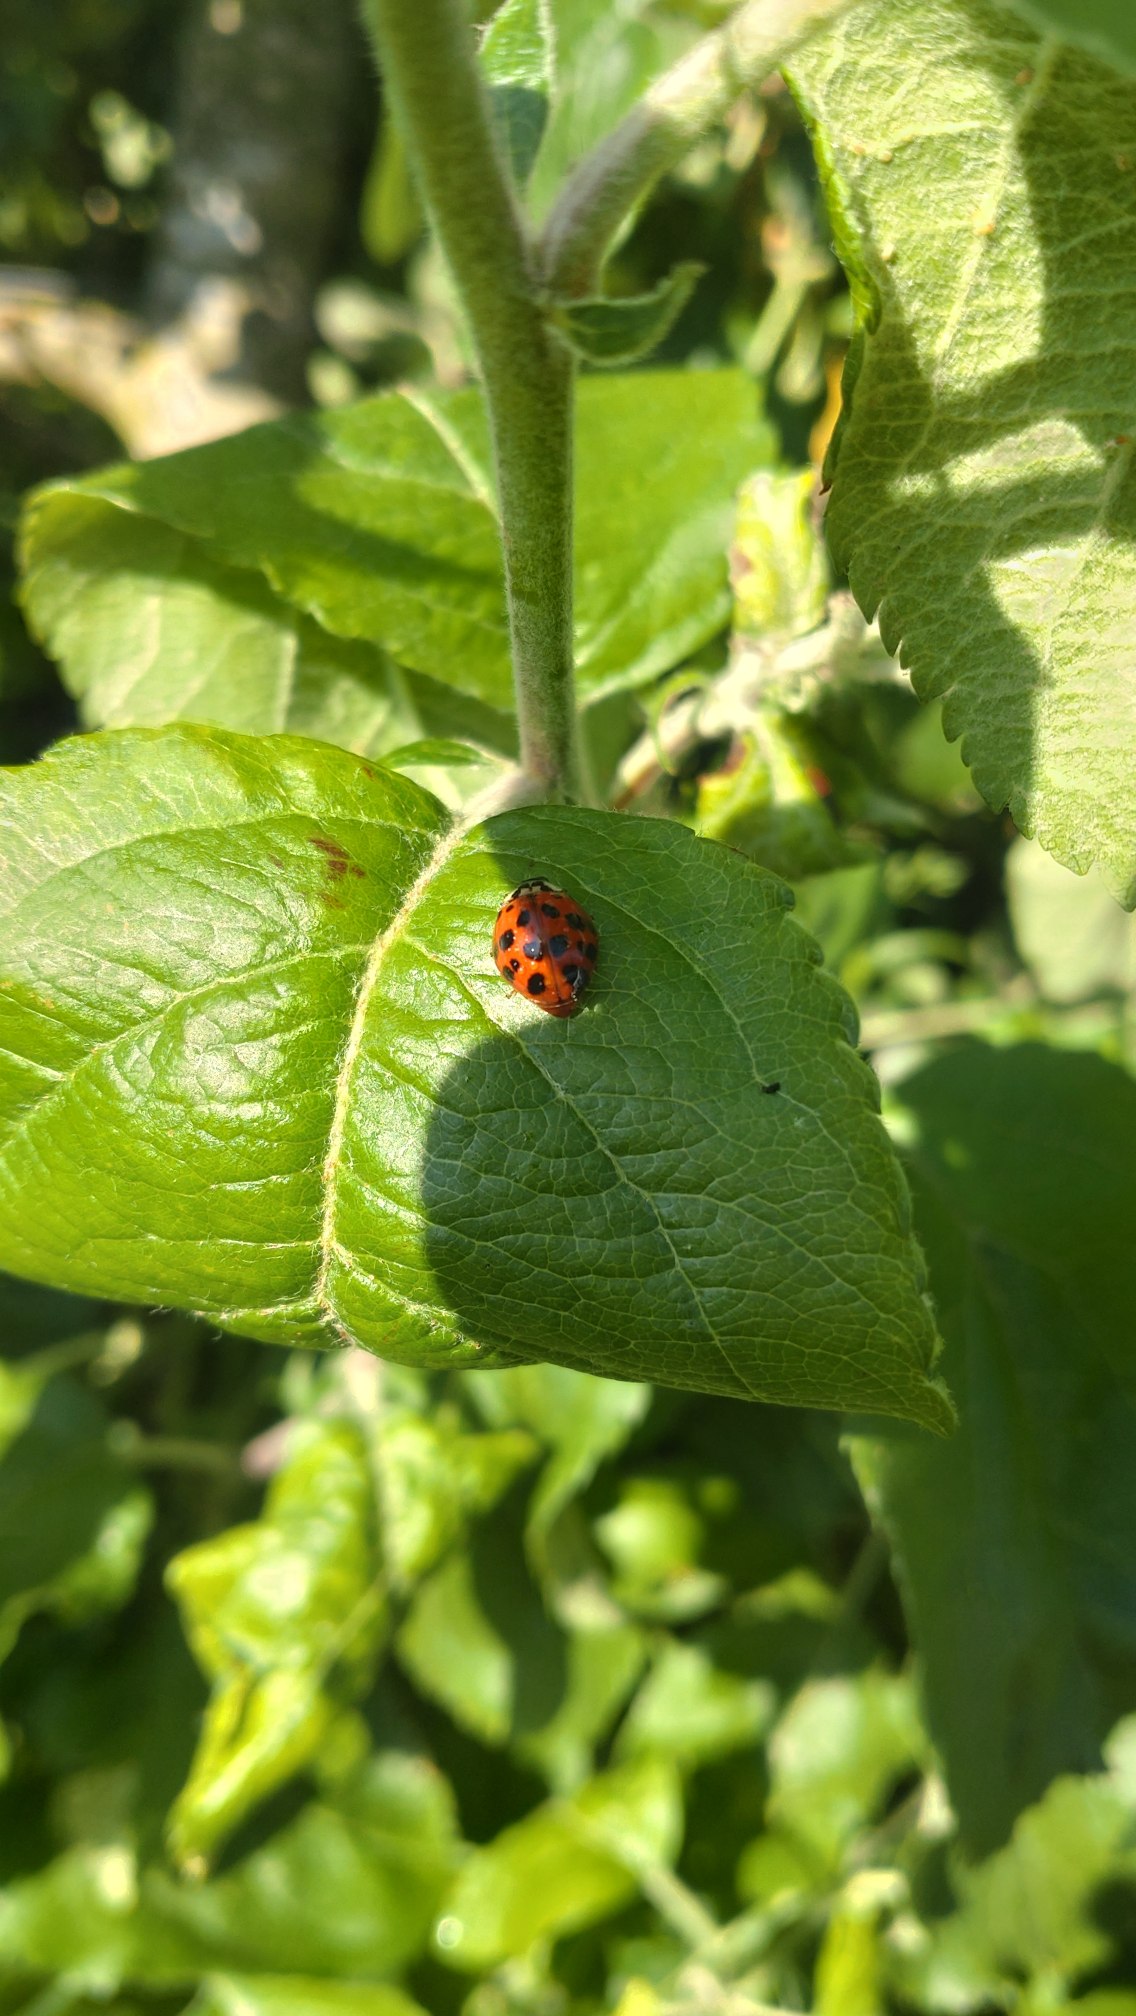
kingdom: Animalia
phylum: Arthropoda
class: Insecta
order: Coleoptera
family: Coccinellidae
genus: Harmonia
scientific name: Harmonia axyridis
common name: Harlekinmariehøne
